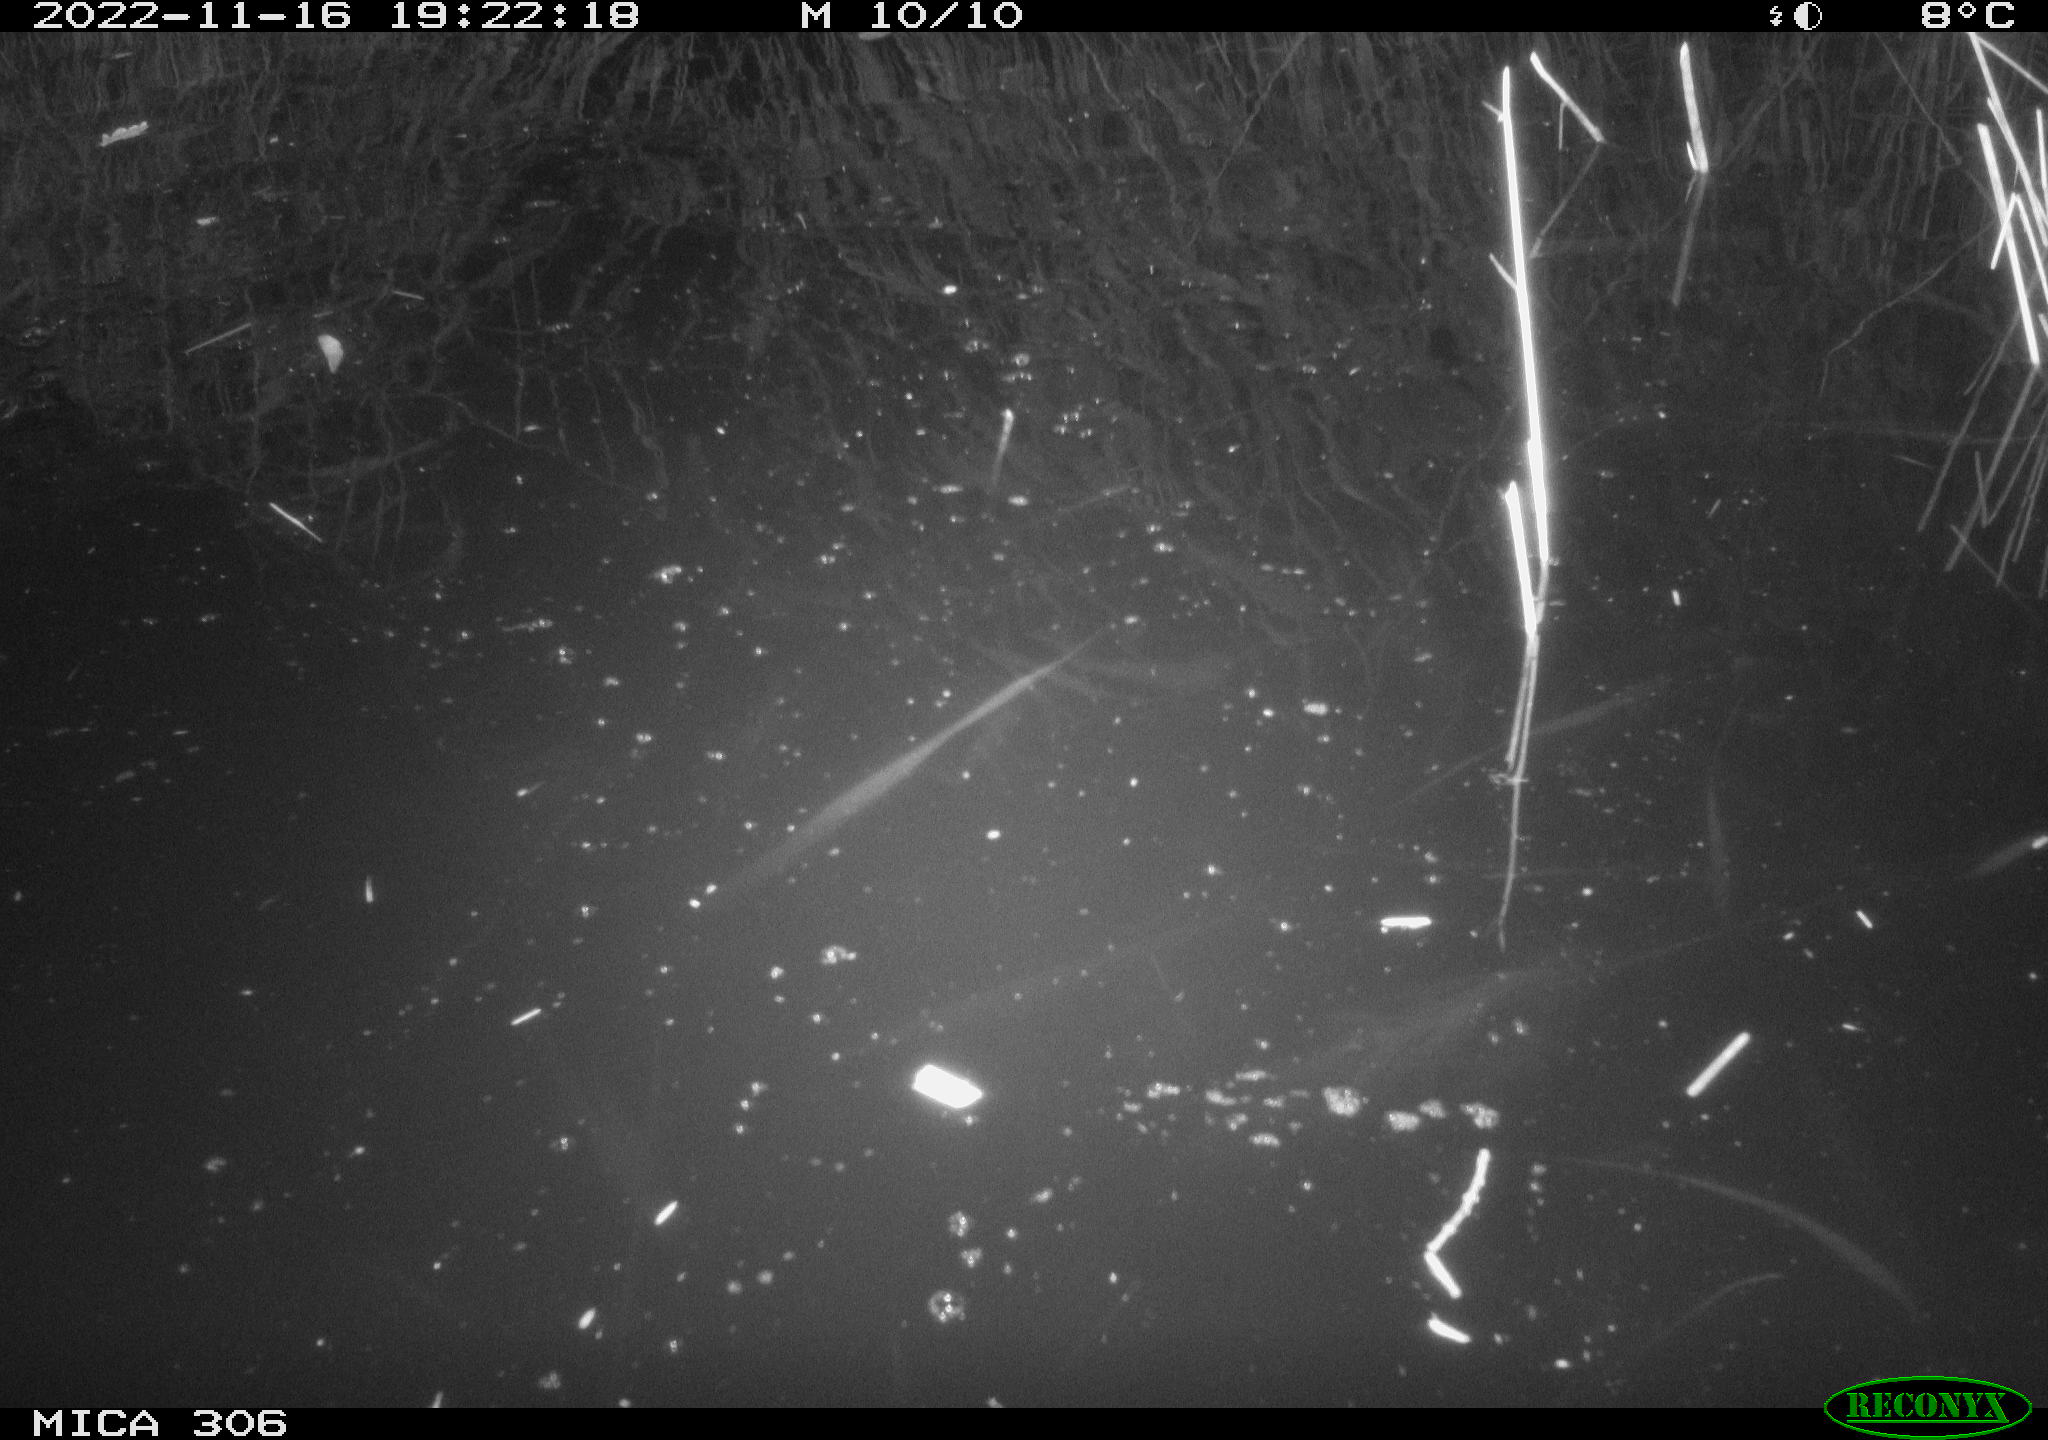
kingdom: Animalia
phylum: Chordata
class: Mammalia
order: Rodentia
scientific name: Rodentia
